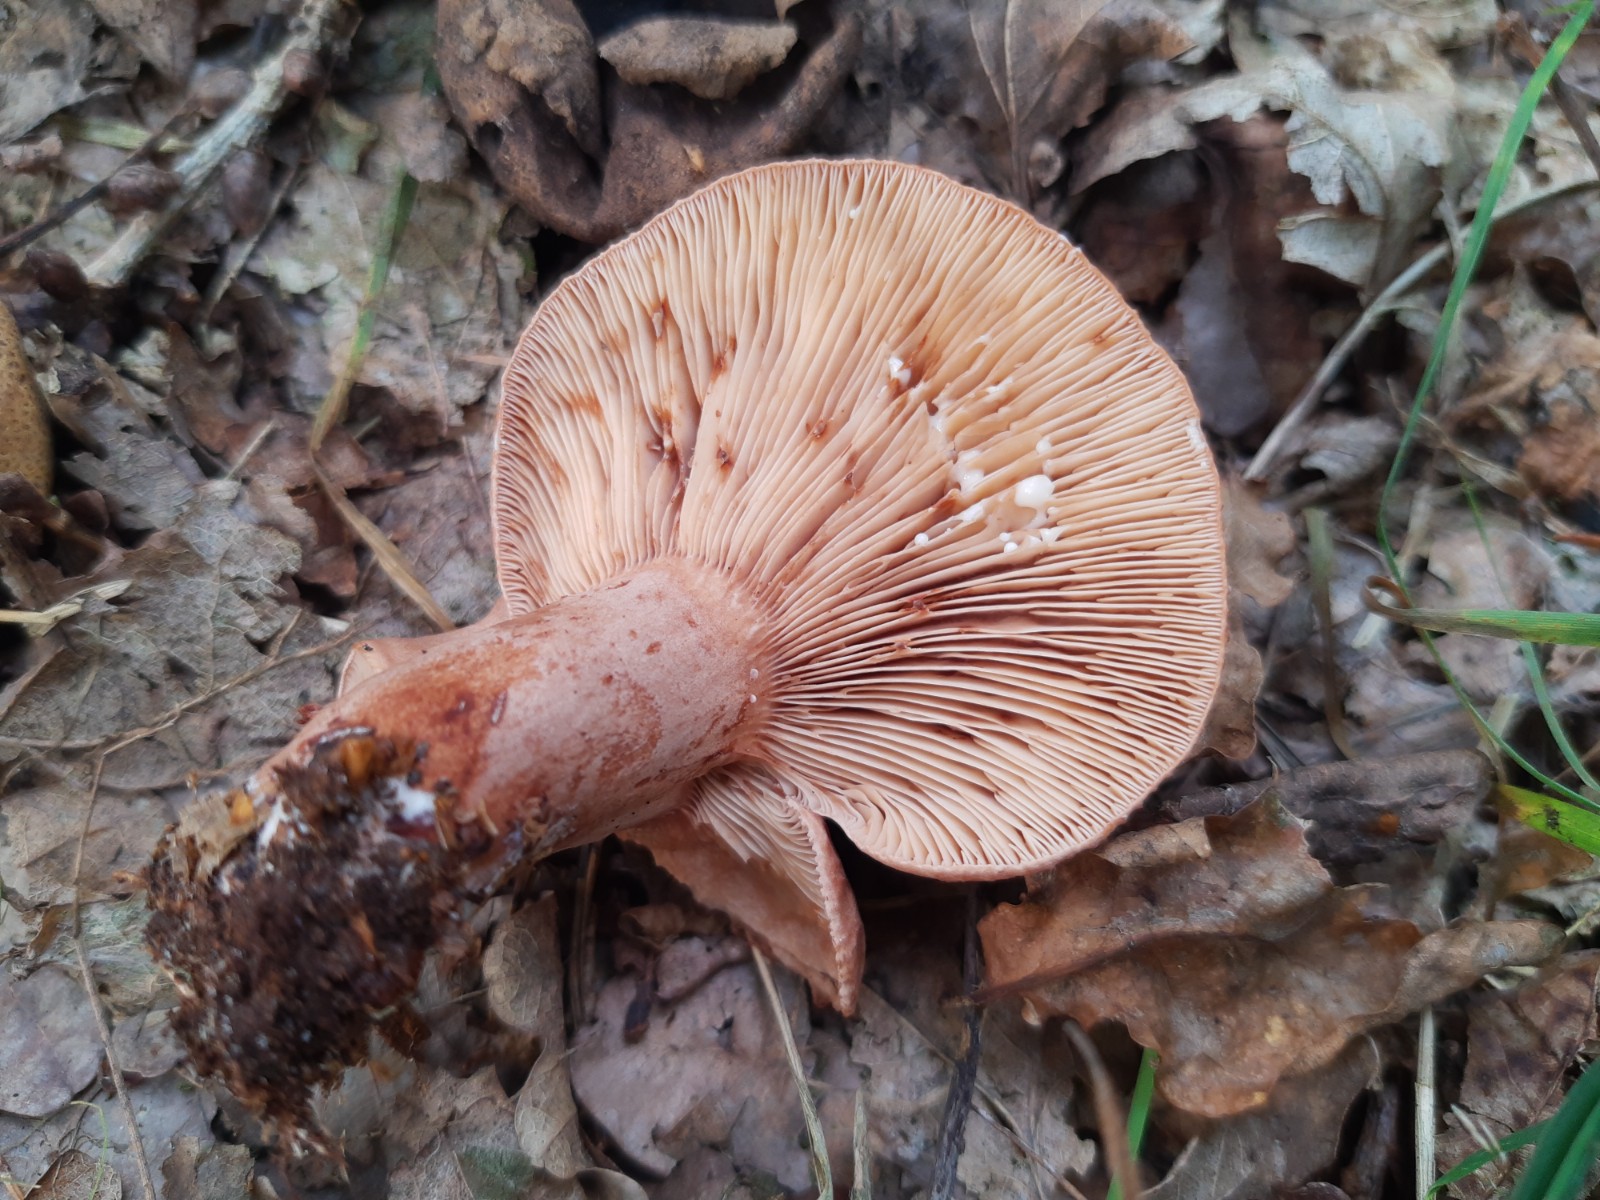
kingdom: Fungi
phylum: Basidiomycota
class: Agaricomycetes
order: Russulales
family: Russulaceae
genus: Lactarius
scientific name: Lactarius quietus
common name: ege-mælkehat
